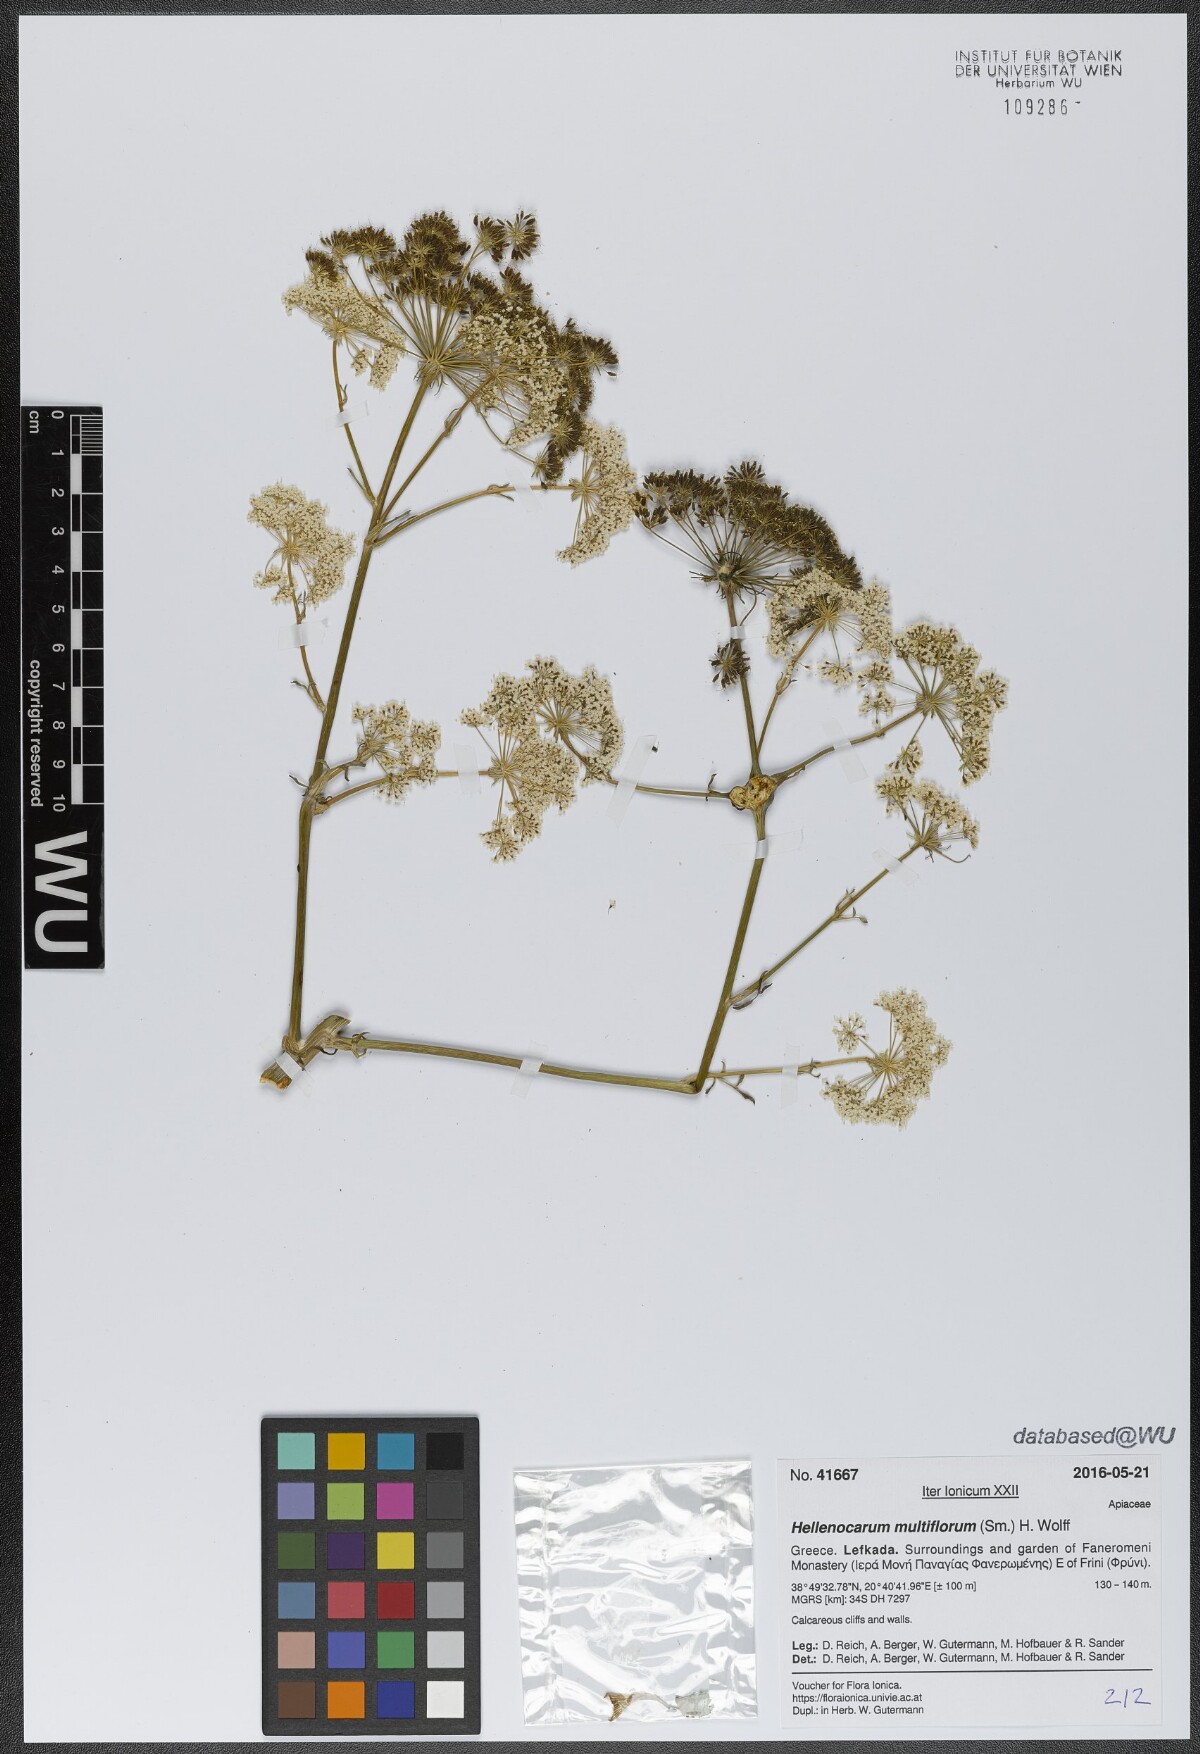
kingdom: Plantae
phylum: Tracheophyta
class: Magnoliopsida
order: Apiales
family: Apiaceae
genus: Hellenocarum
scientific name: Hellenocarum multiflorum
